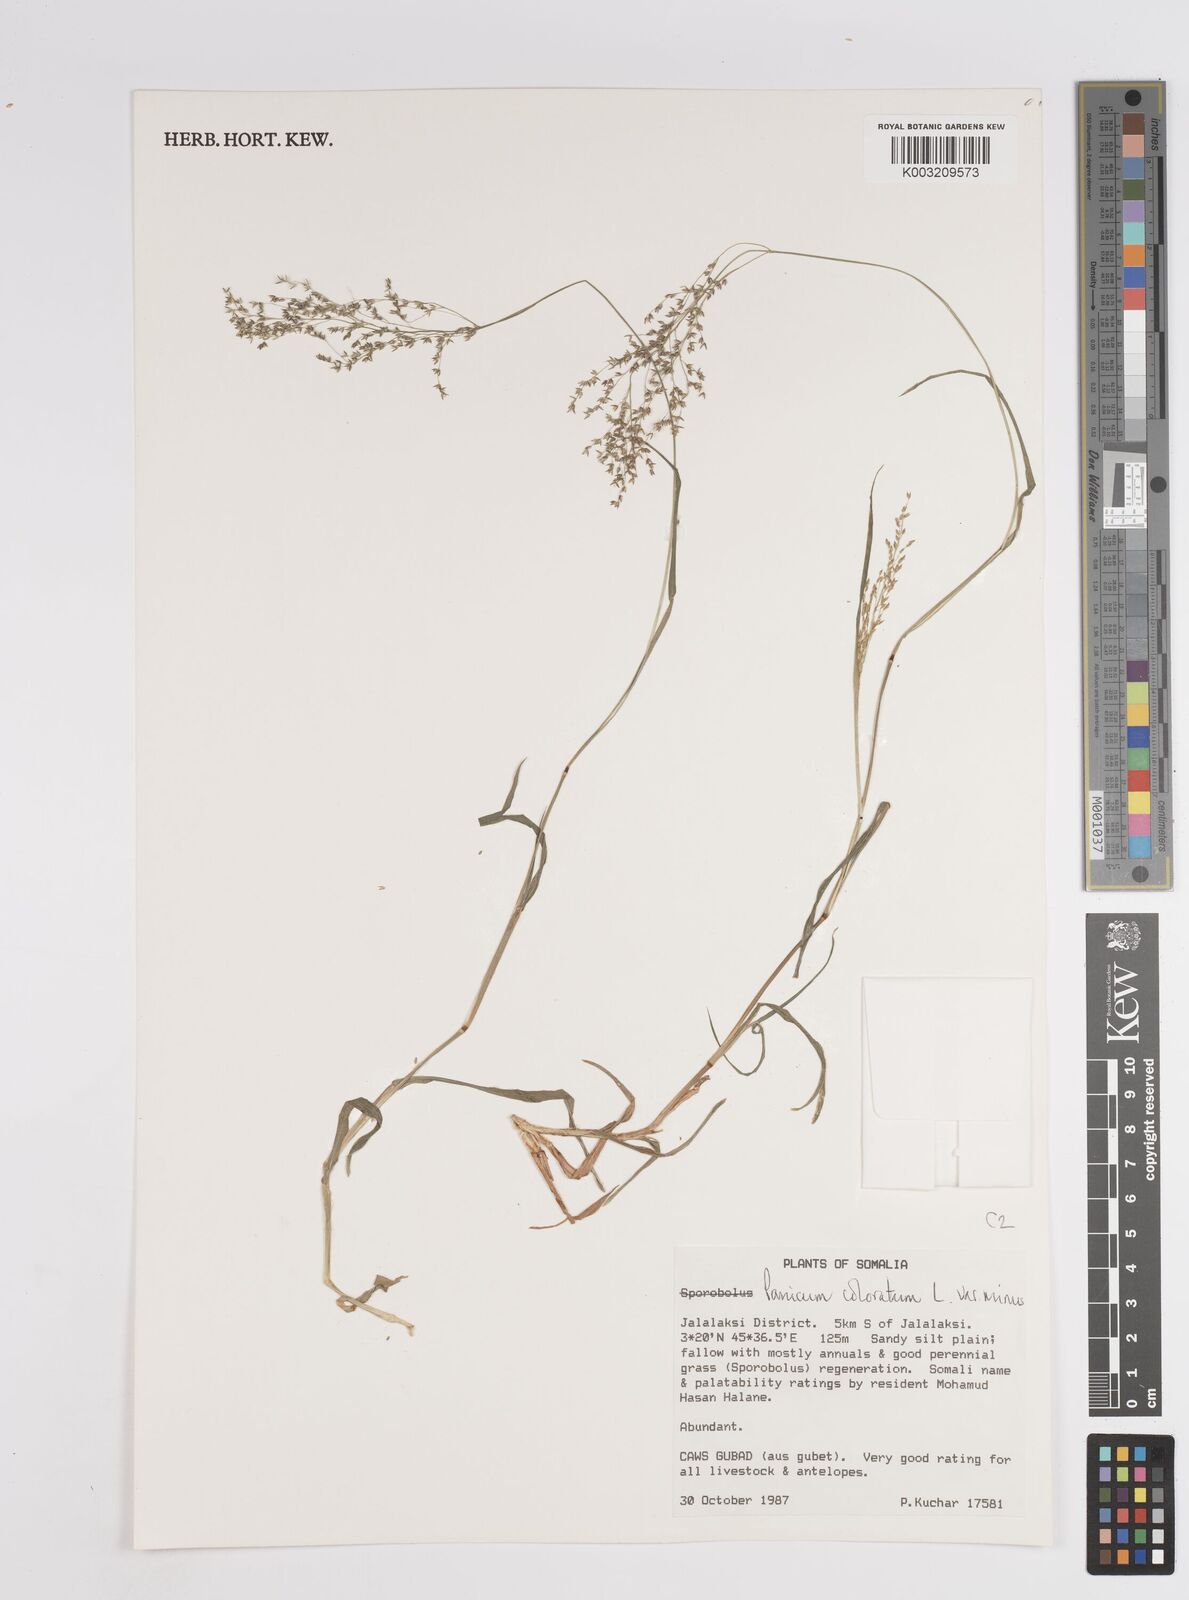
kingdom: Plantae
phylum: Tracheophyta
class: Liliopsida
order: Poales
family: Poaceae
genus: Panicum
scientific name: Panicum coloratum
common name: Kleingrass
